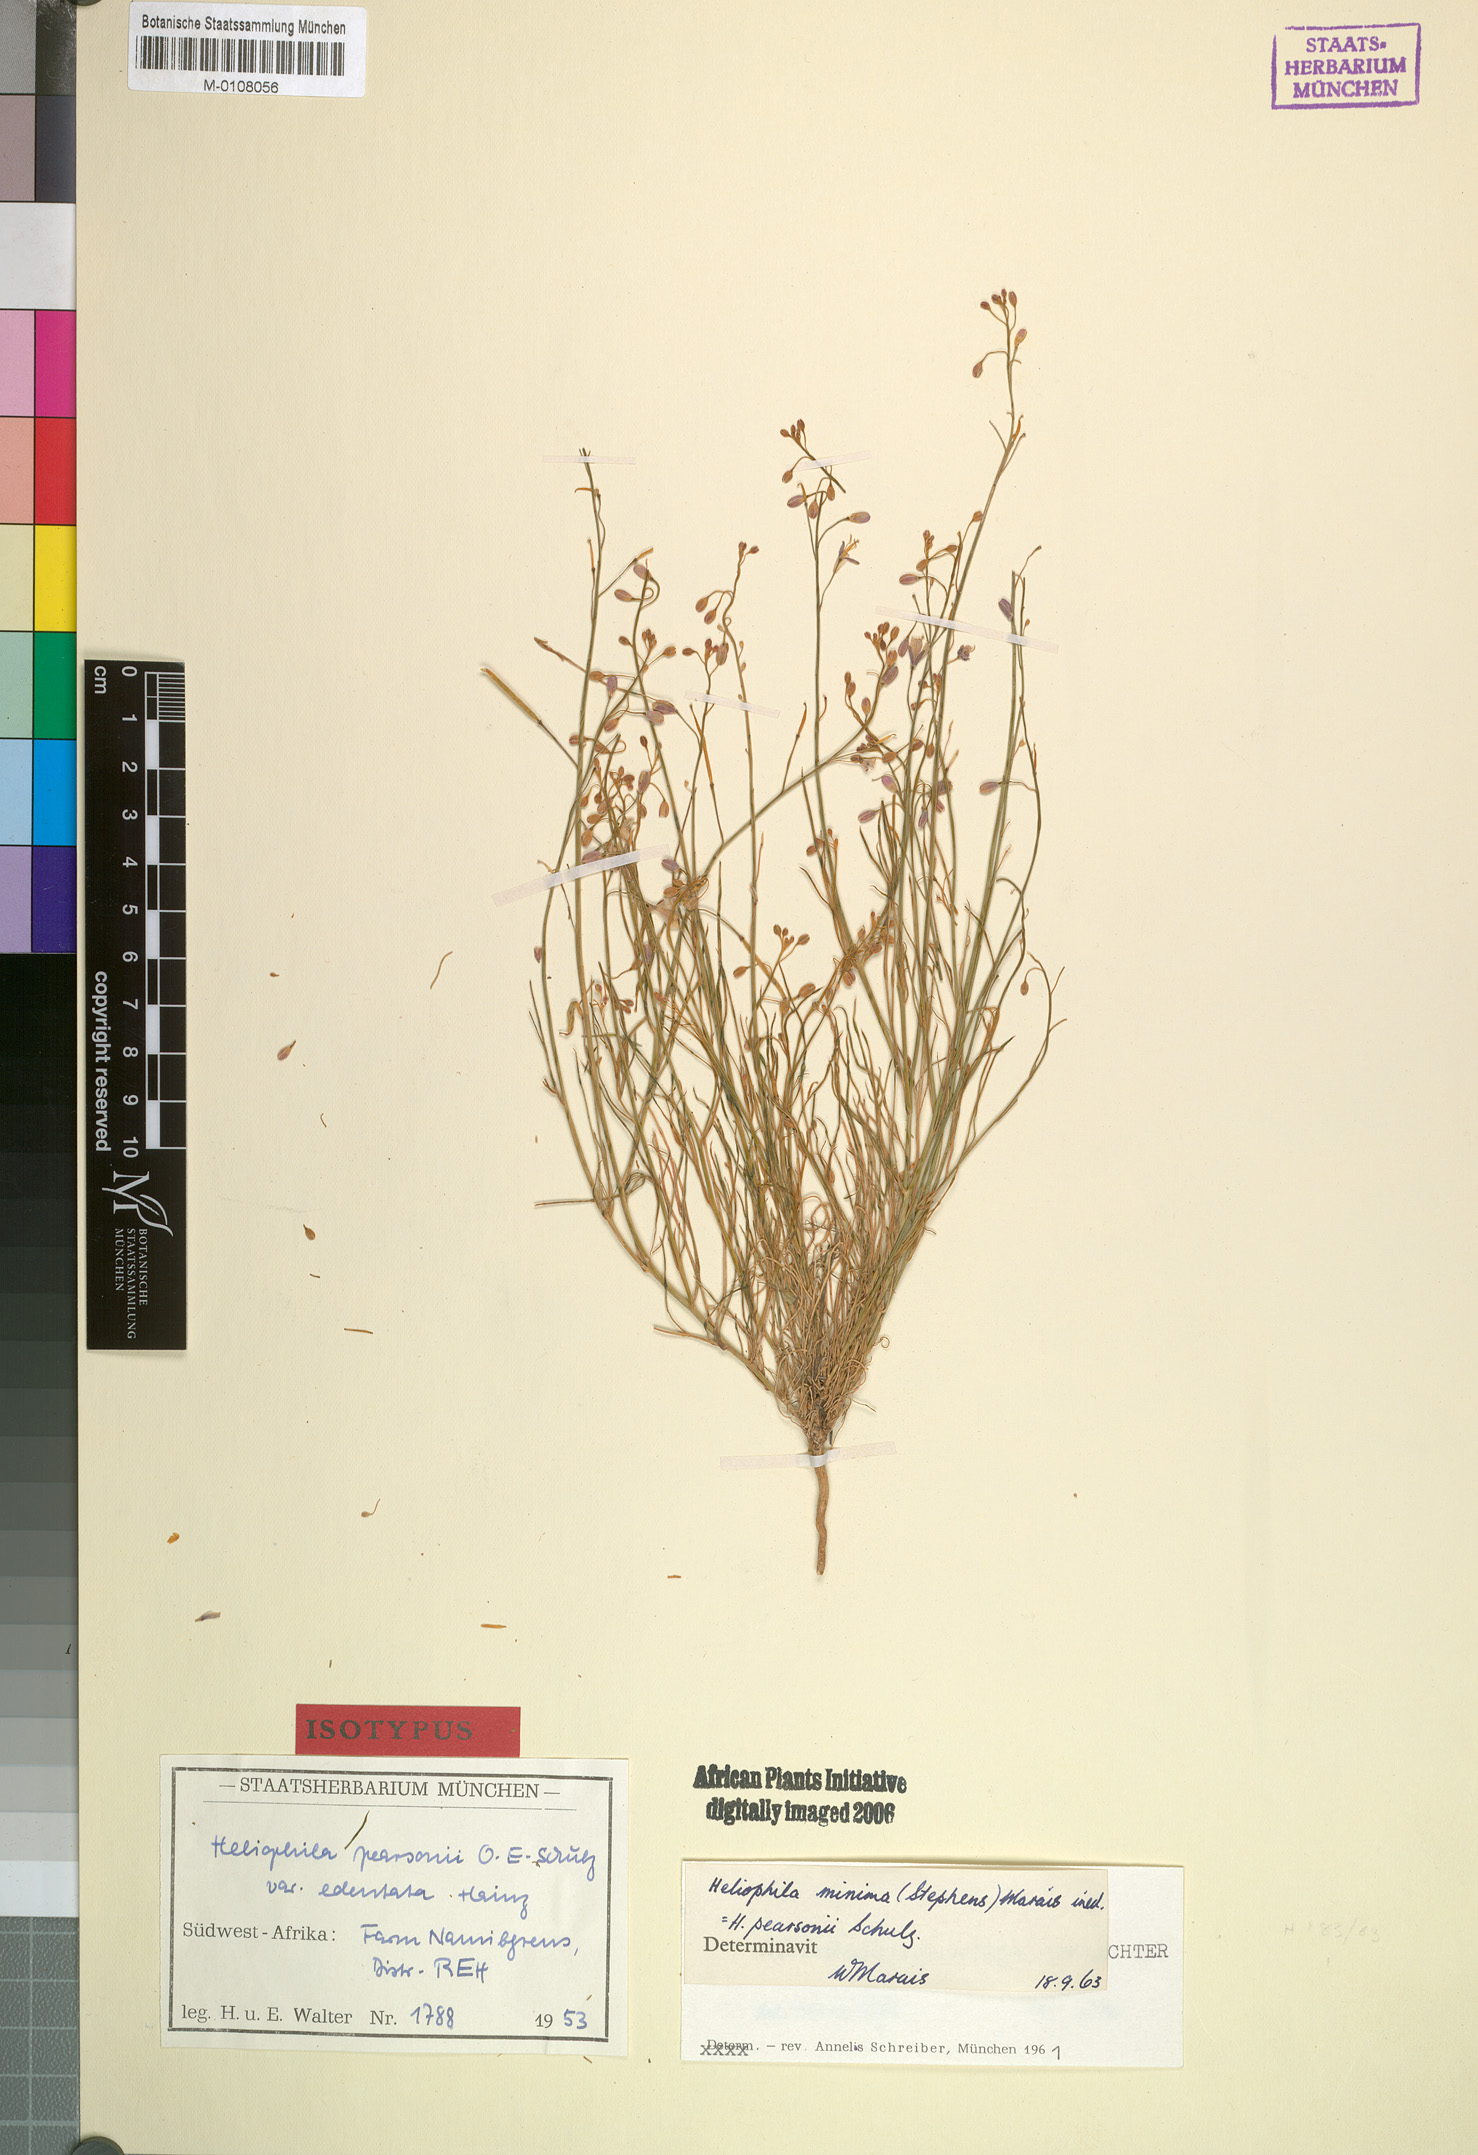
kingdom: Plantae
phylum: Tracheophyta
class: Magnoliopsida
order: Brassicales
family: Brassicaceae
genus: Heliophila
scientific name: Heliophila minima
